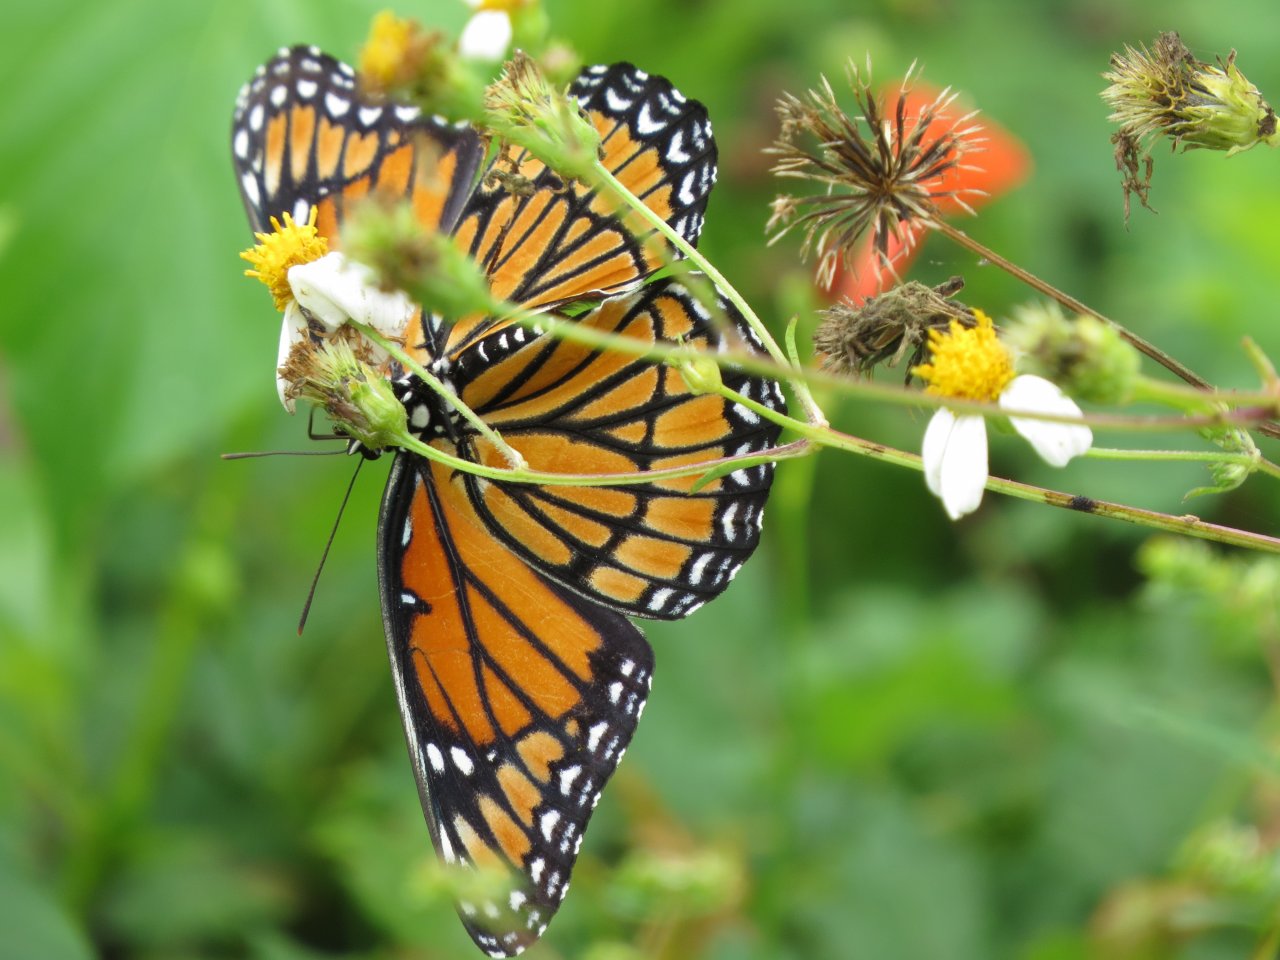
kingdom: Animalia
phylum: Arthropoda
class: Insecta
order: Lepidoptera
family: Nymphalidae
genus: Limenitis
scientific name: Limenitis archippus
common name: Viceroy
